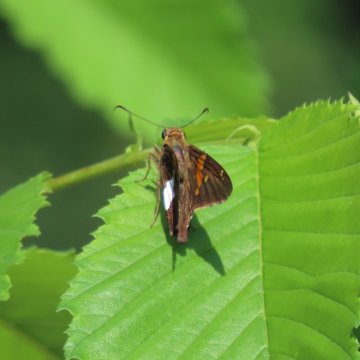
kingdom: Animalia
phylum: Arthropoda
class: Insecta
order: Lepidoptera
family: Hesperiidae
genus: Epargyreus
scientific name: Epargyreus clarus
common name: Silver-spotted Skipper
